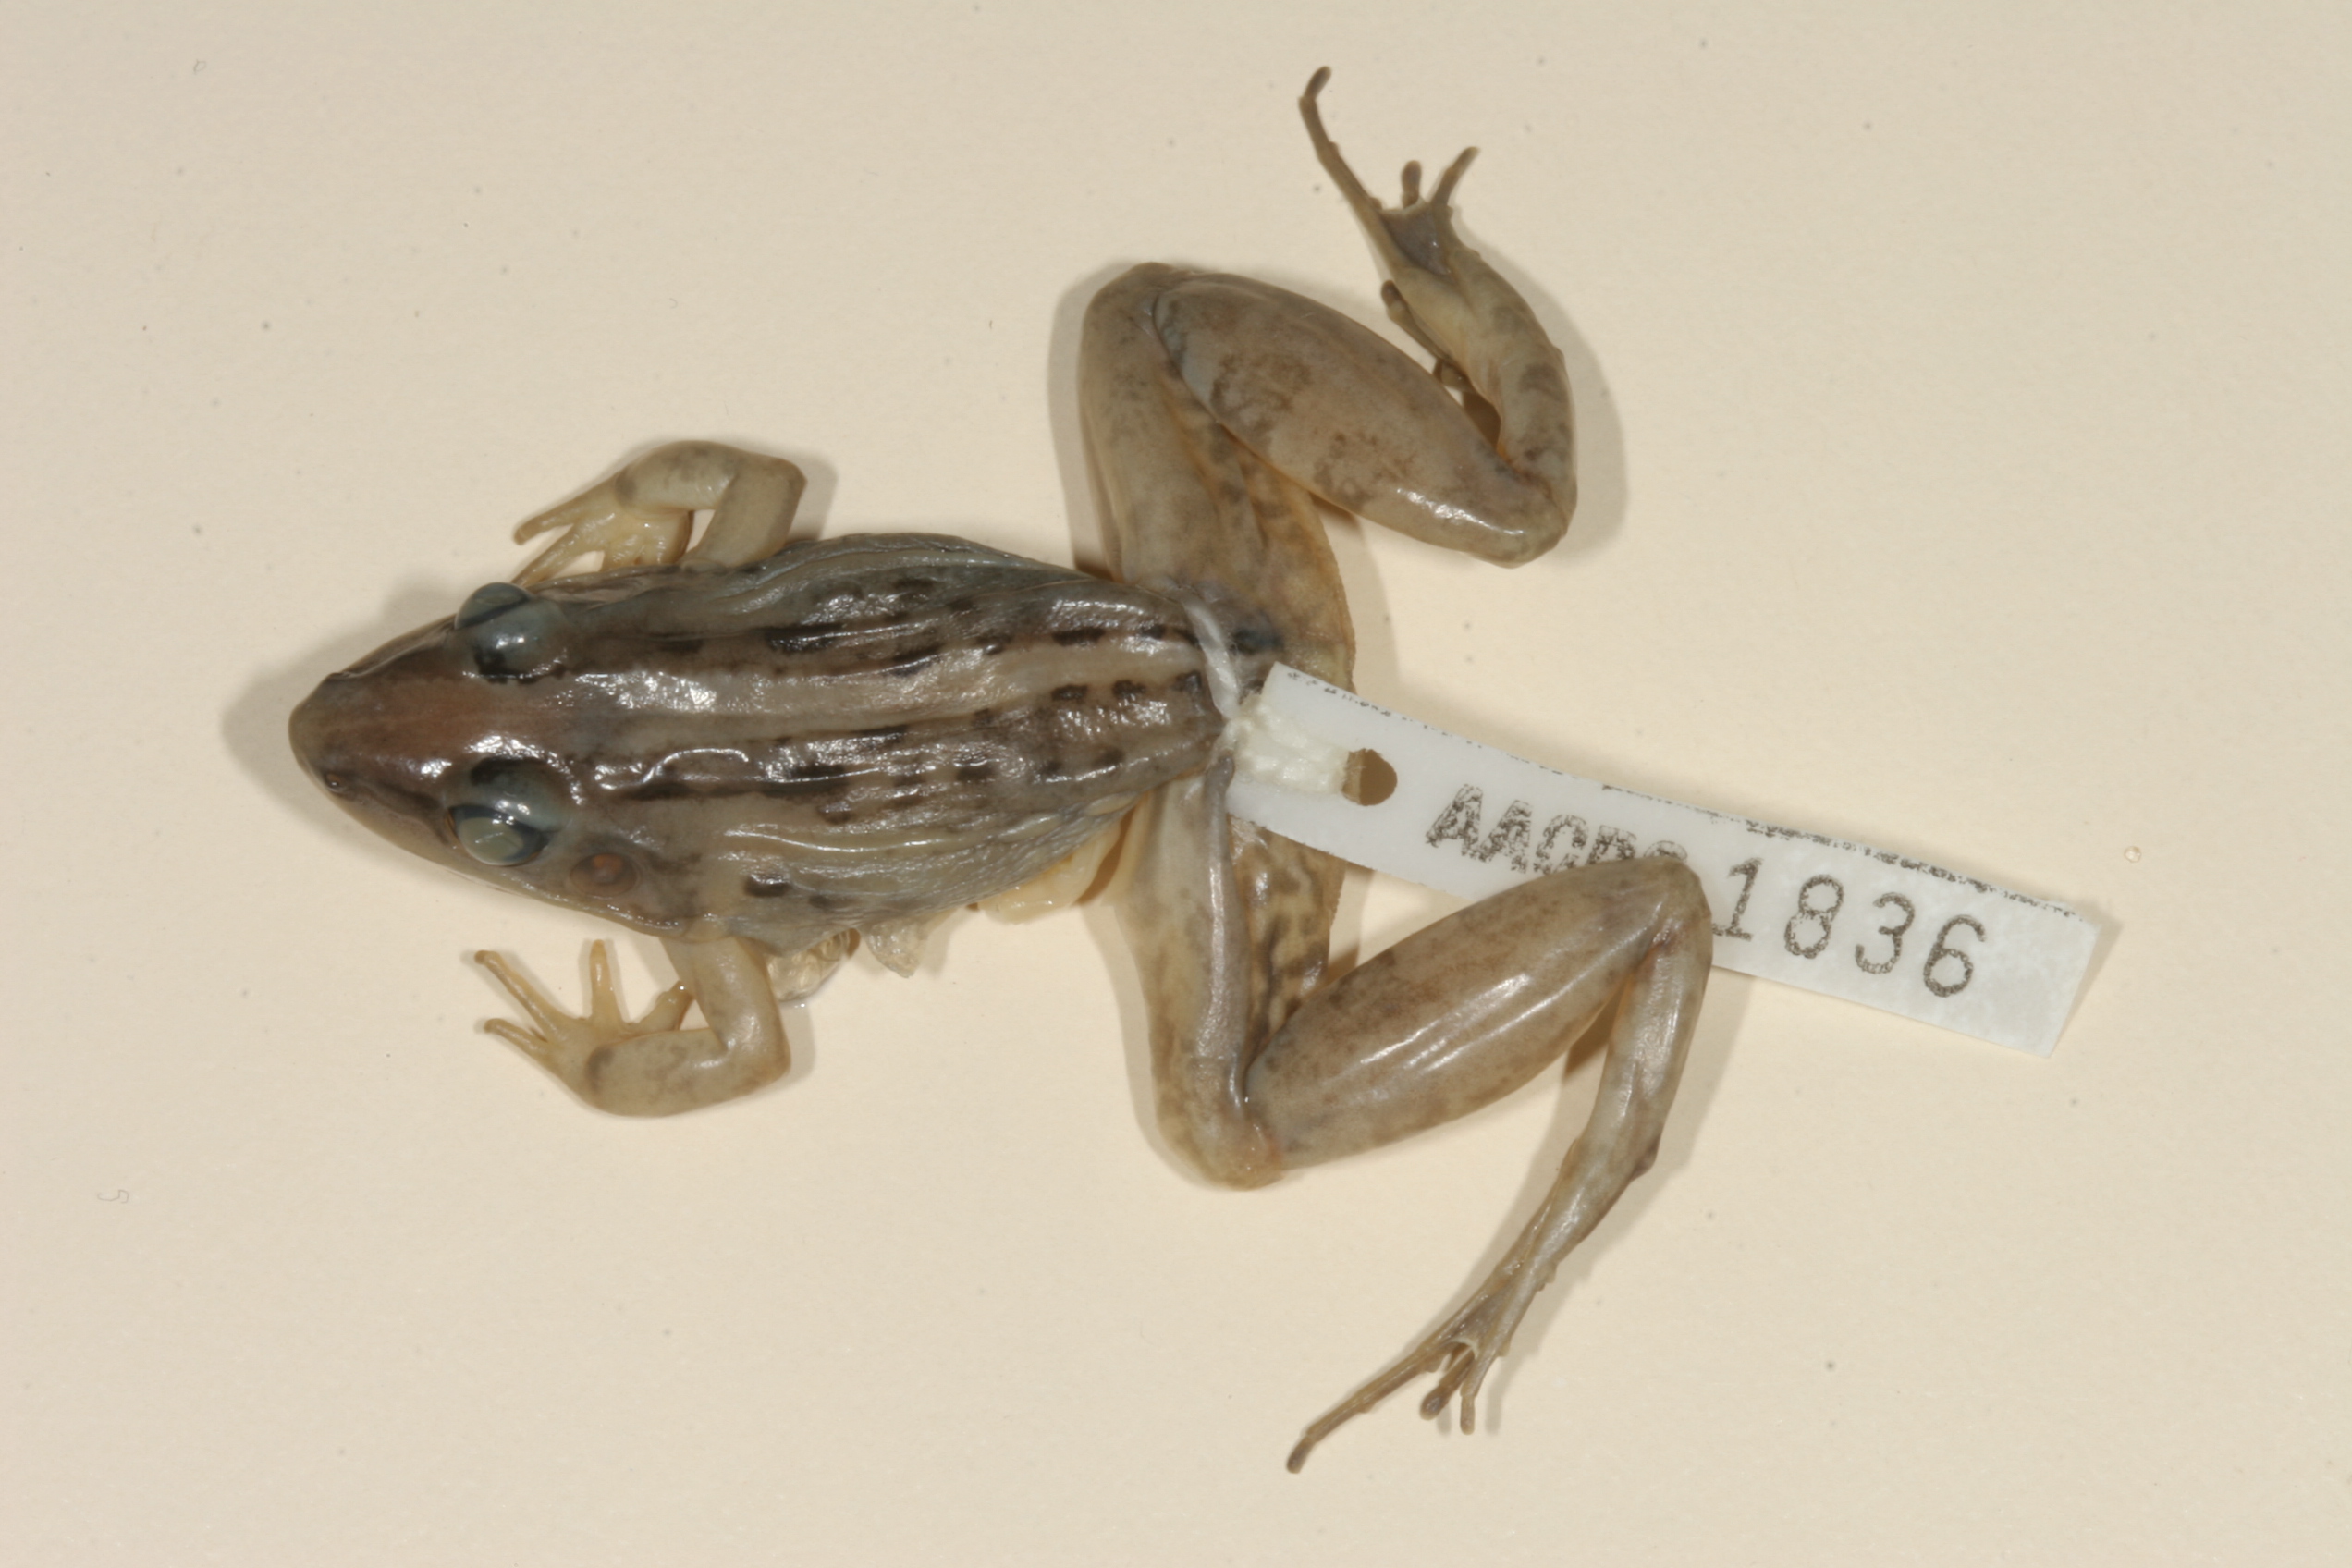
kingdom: Animalia
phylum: Chordata
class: Amphibia
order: Anura
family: Ptychadenidae
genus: Ptychadena
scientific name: Ptychadena mossambica
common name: Mozambique ridged frog
